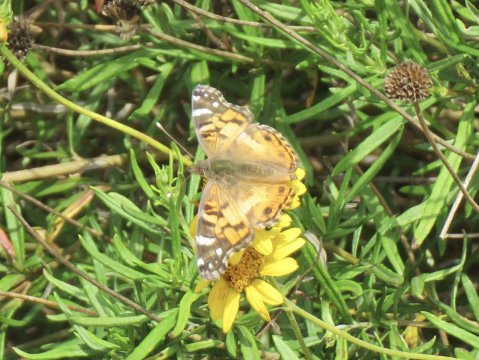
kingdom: Animalia
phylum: Arthropoda
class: Insecta
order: Lepidoptera
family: Nymphalidae
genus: Vanessa
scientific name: Vanessa virginiensis
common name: American Lady
